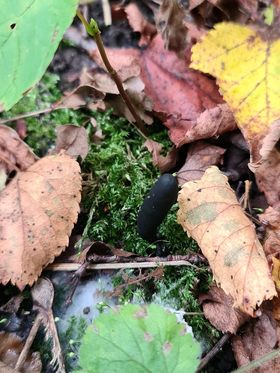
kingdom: Fungi
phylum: Ascomycota
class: Sordariomycetes
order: Xylariales
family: Xylariaceae
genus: Xylaria
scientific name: Xylaria longipes
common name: slank stødsvamp
